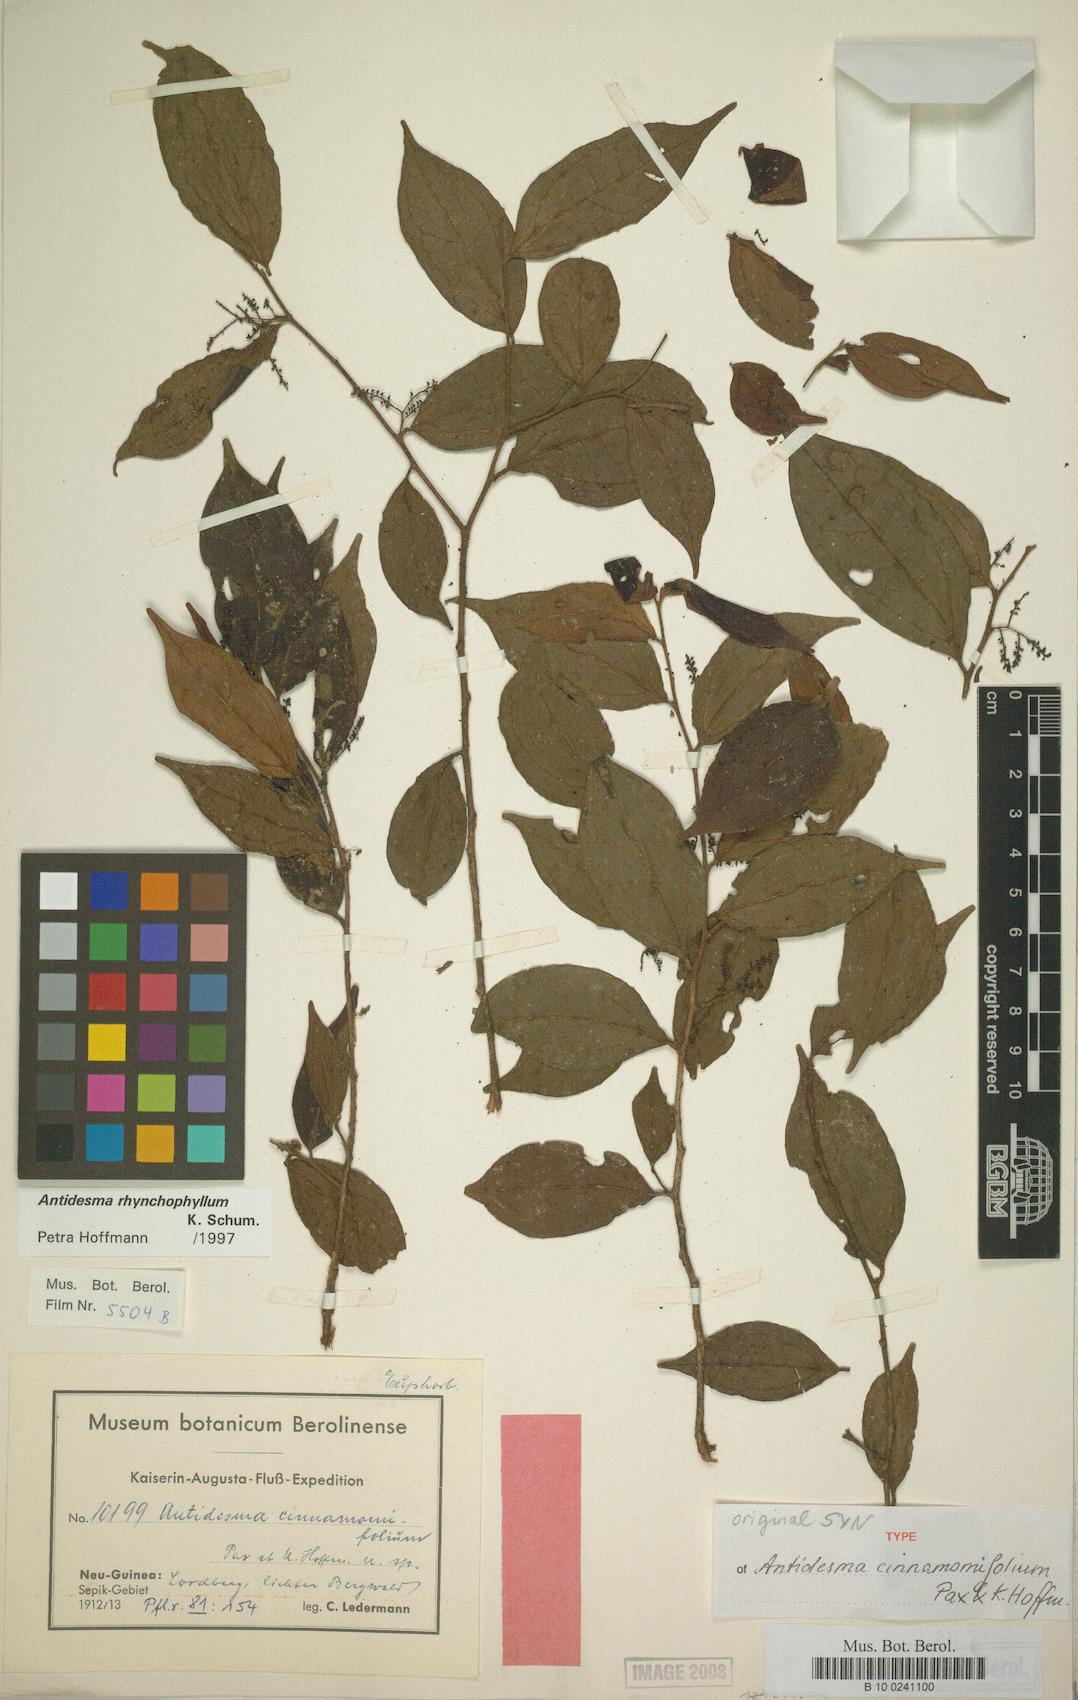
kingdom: Plantae
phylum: Tracheophyta
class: Magnoliopsida
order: Malpighiales
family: Phyllanthaceae
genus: Antidesma
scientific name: Antidesma rhynchophyllum
